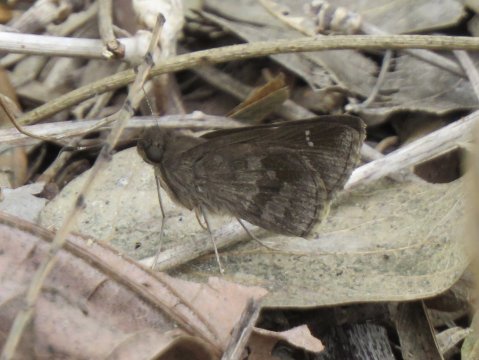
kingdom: Animalia
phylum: Arthropoda
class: Insecta
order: Lepidoptera
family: Hesperiidae
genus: Cymaenes
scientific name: Cymaenes odilia
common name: Fawn-spotted Skipper
